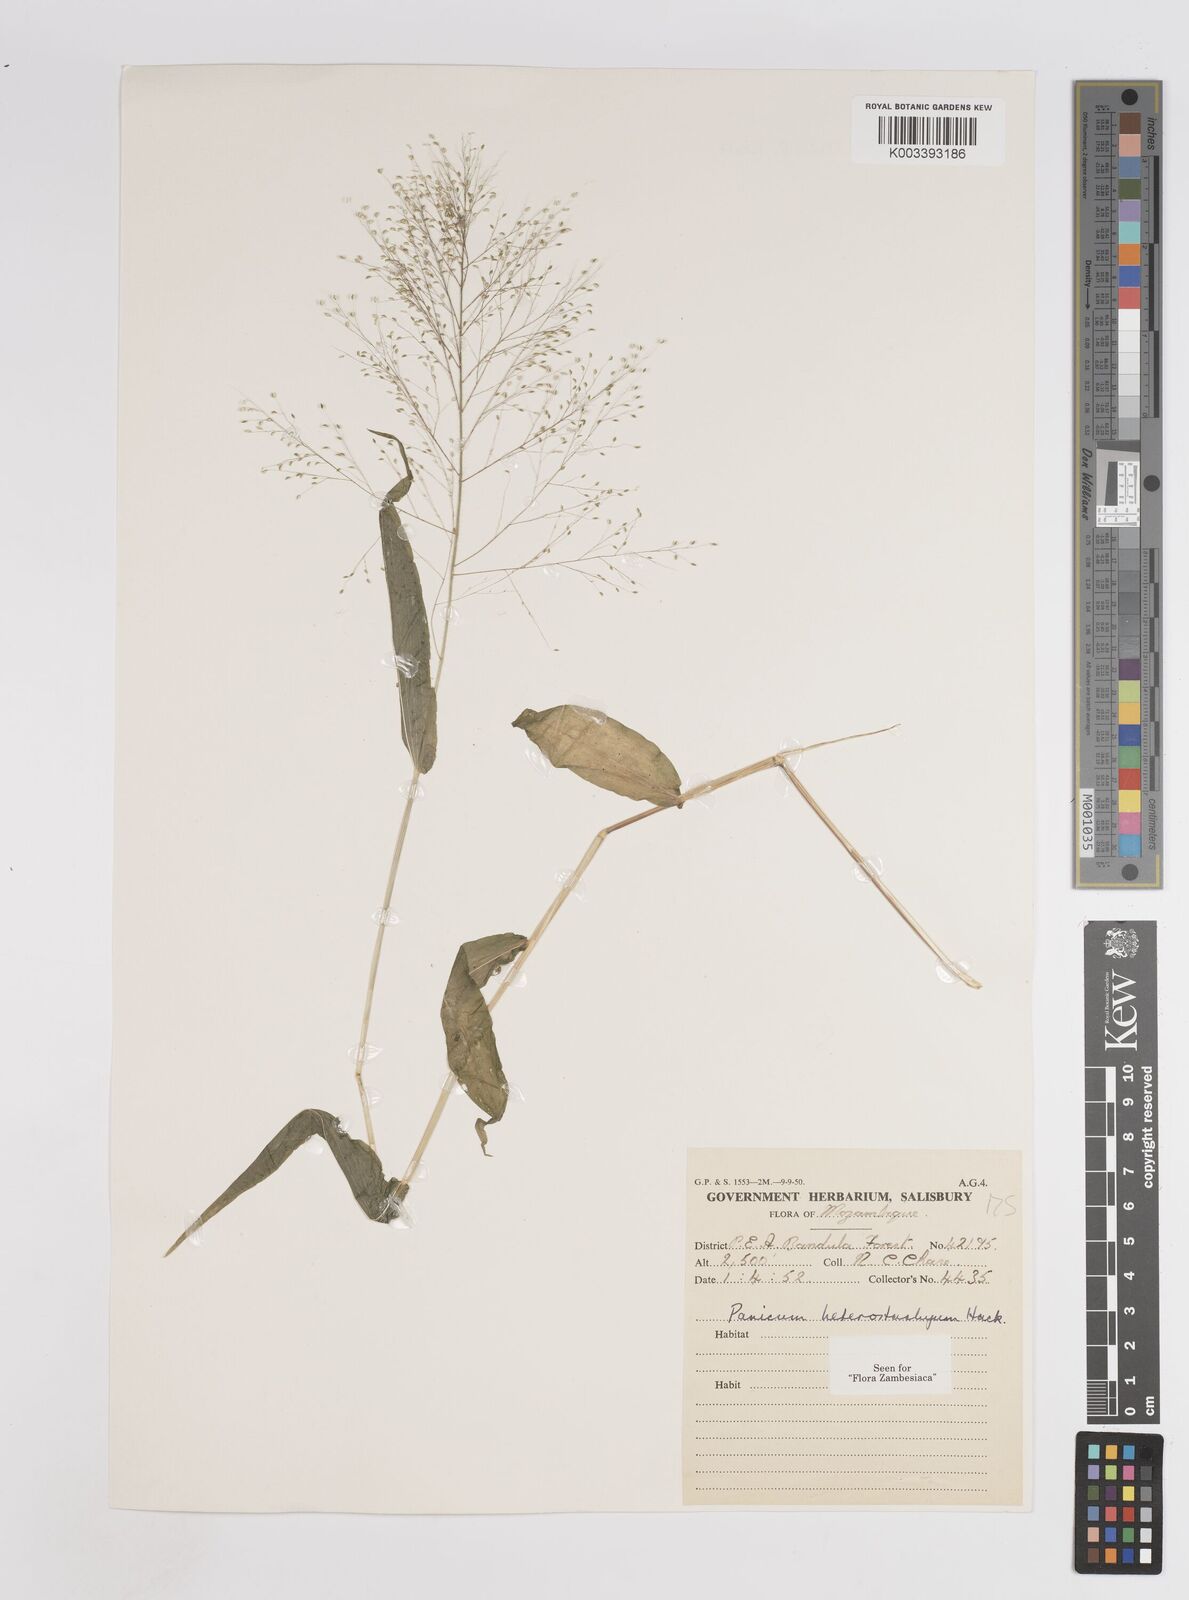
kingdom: Plantae
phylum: Tracheophyta
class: Liliopsida
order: Poales
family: Poaceae
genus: Panicum
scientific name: Panicum hirtum
